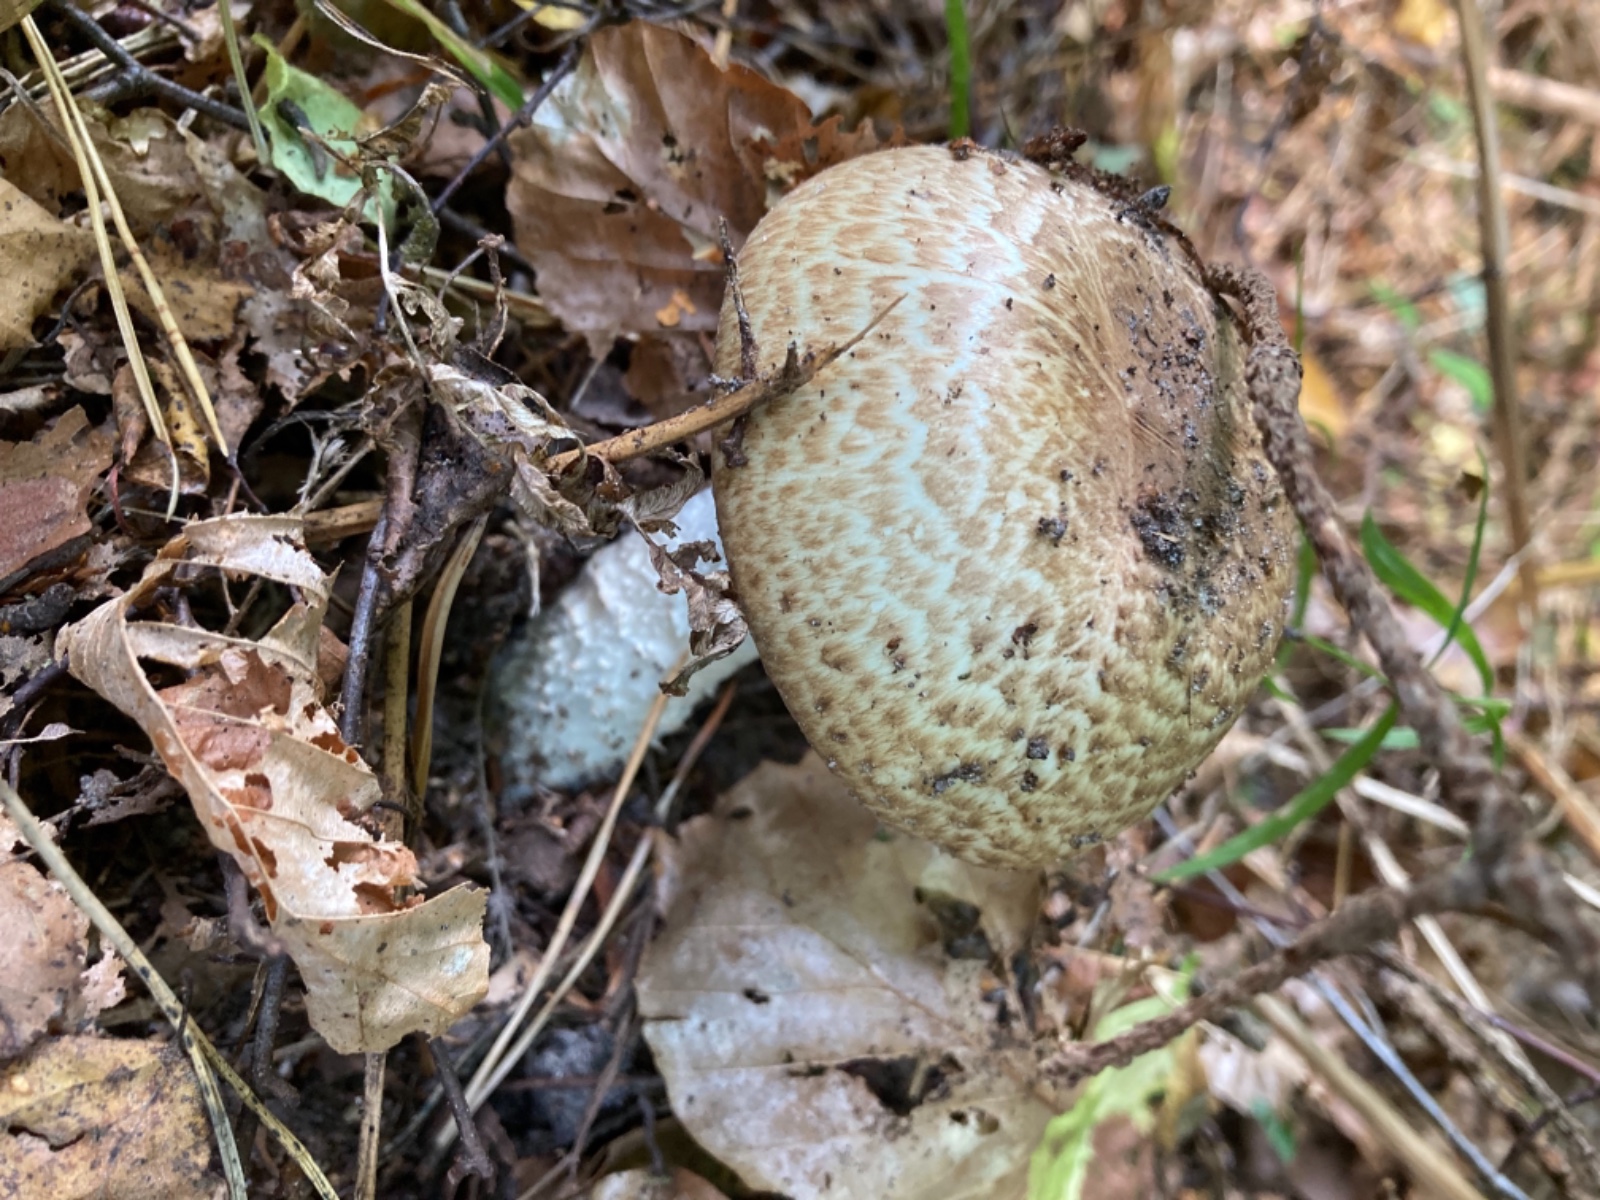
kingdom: Fungi
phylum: Basidiomycota
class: Agaricomycetes
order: Agaricales
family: Agaricaceae
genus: Agaricus
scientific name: Agaricus augustus
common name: prægtig champignon
